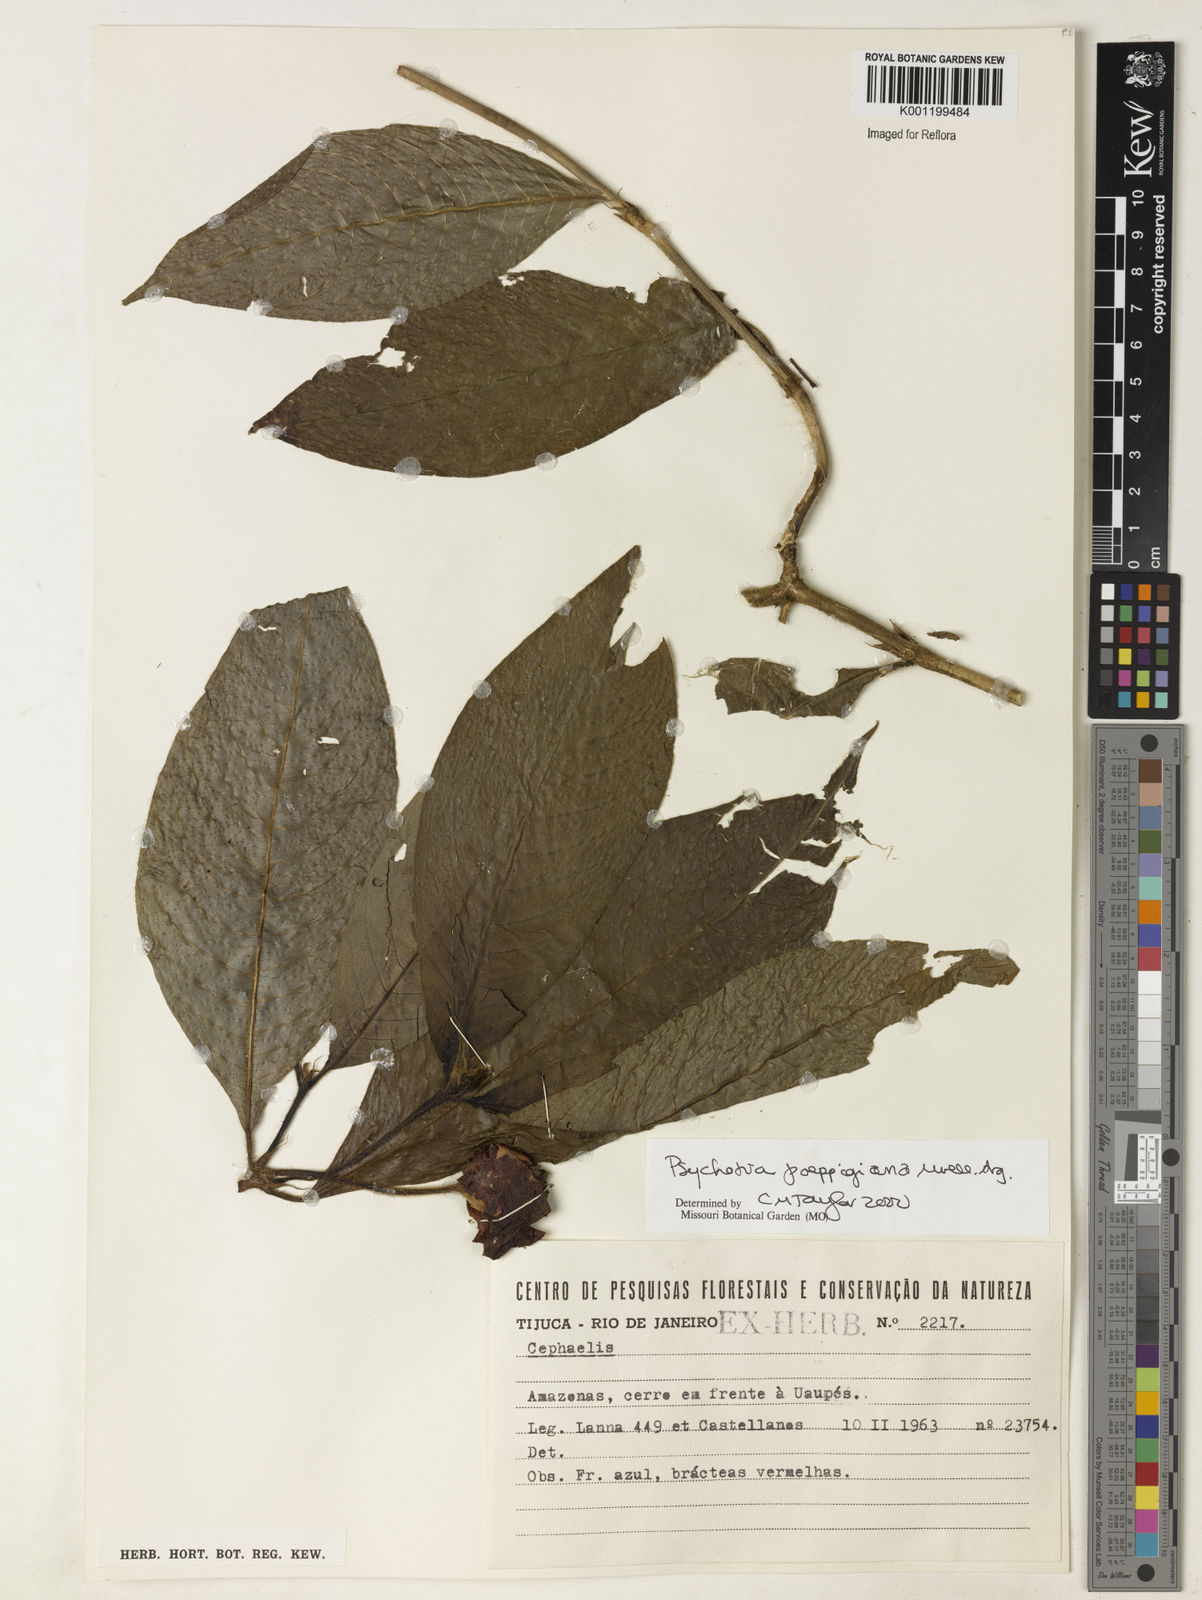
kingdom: Plantae
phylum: Tracheophyta
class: Magnoliopsida
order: Gentianales
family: Rubiaceae
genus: Psychotria
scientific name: Psychotria
